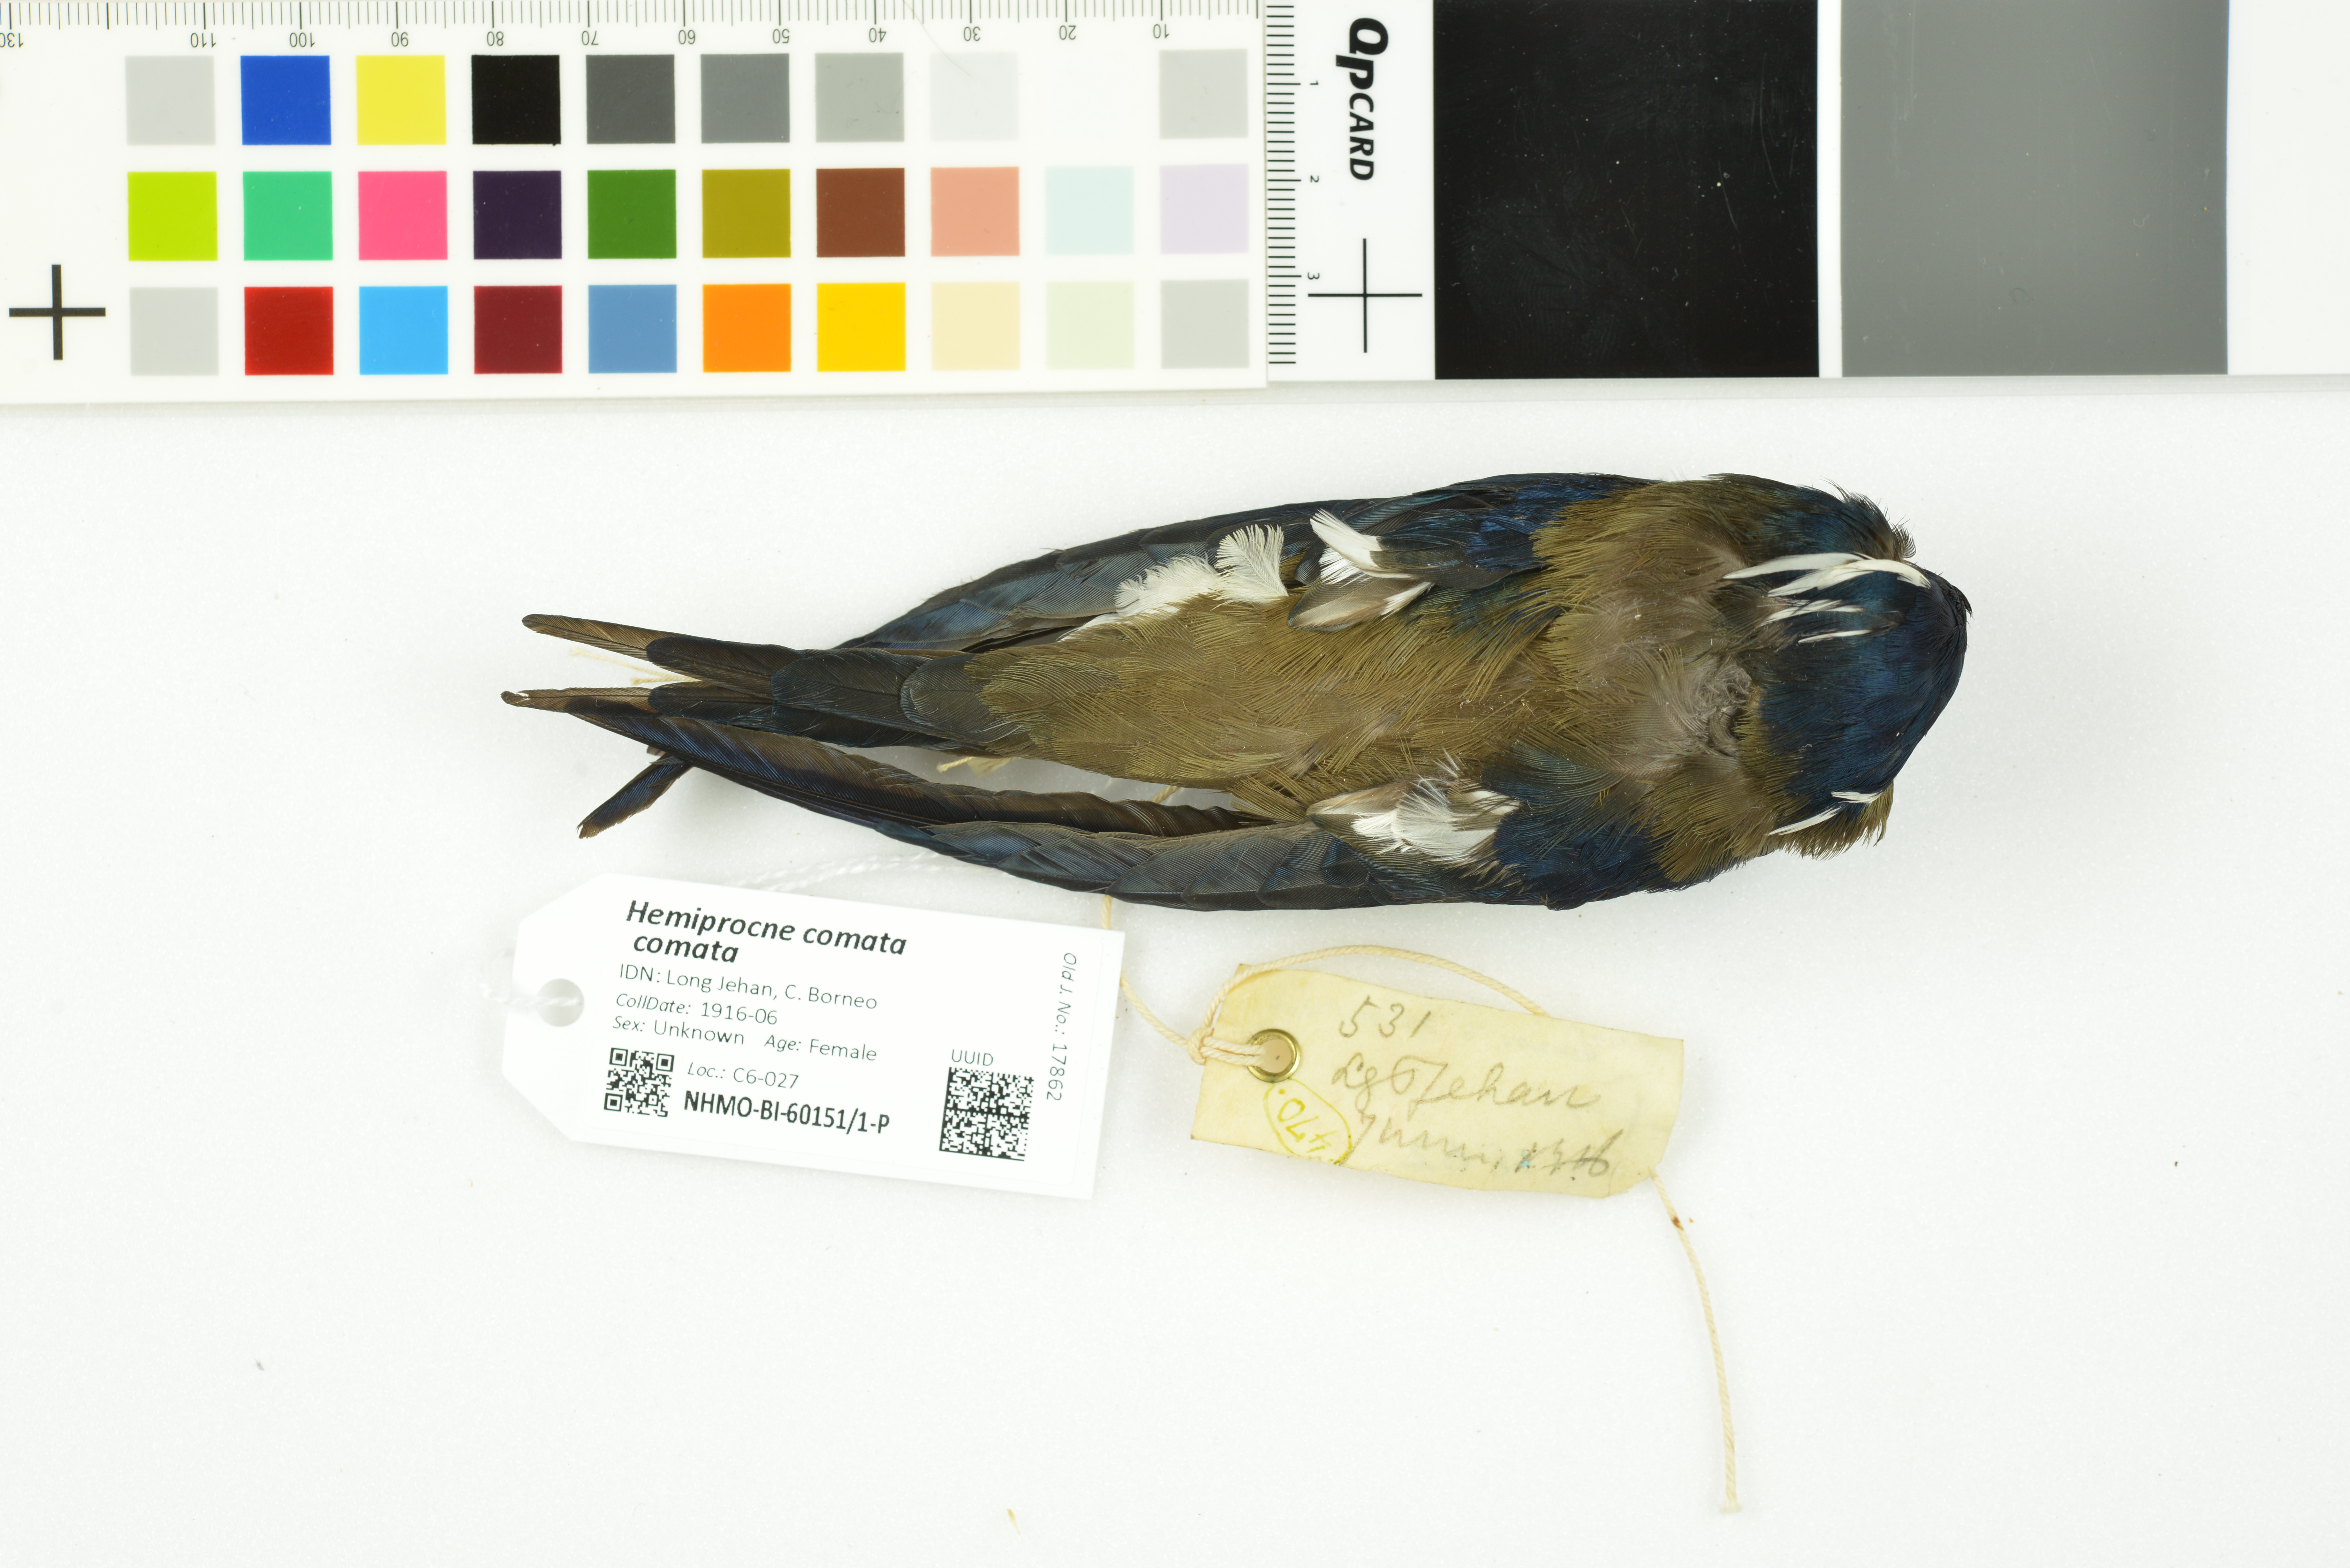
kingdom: Animalia
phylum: Chordata
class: Aves
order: Apodiformes
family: Hemiprocnidae
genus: Hemiprocne
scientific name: Hemiprocne comata
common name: Whiskered treeswift
